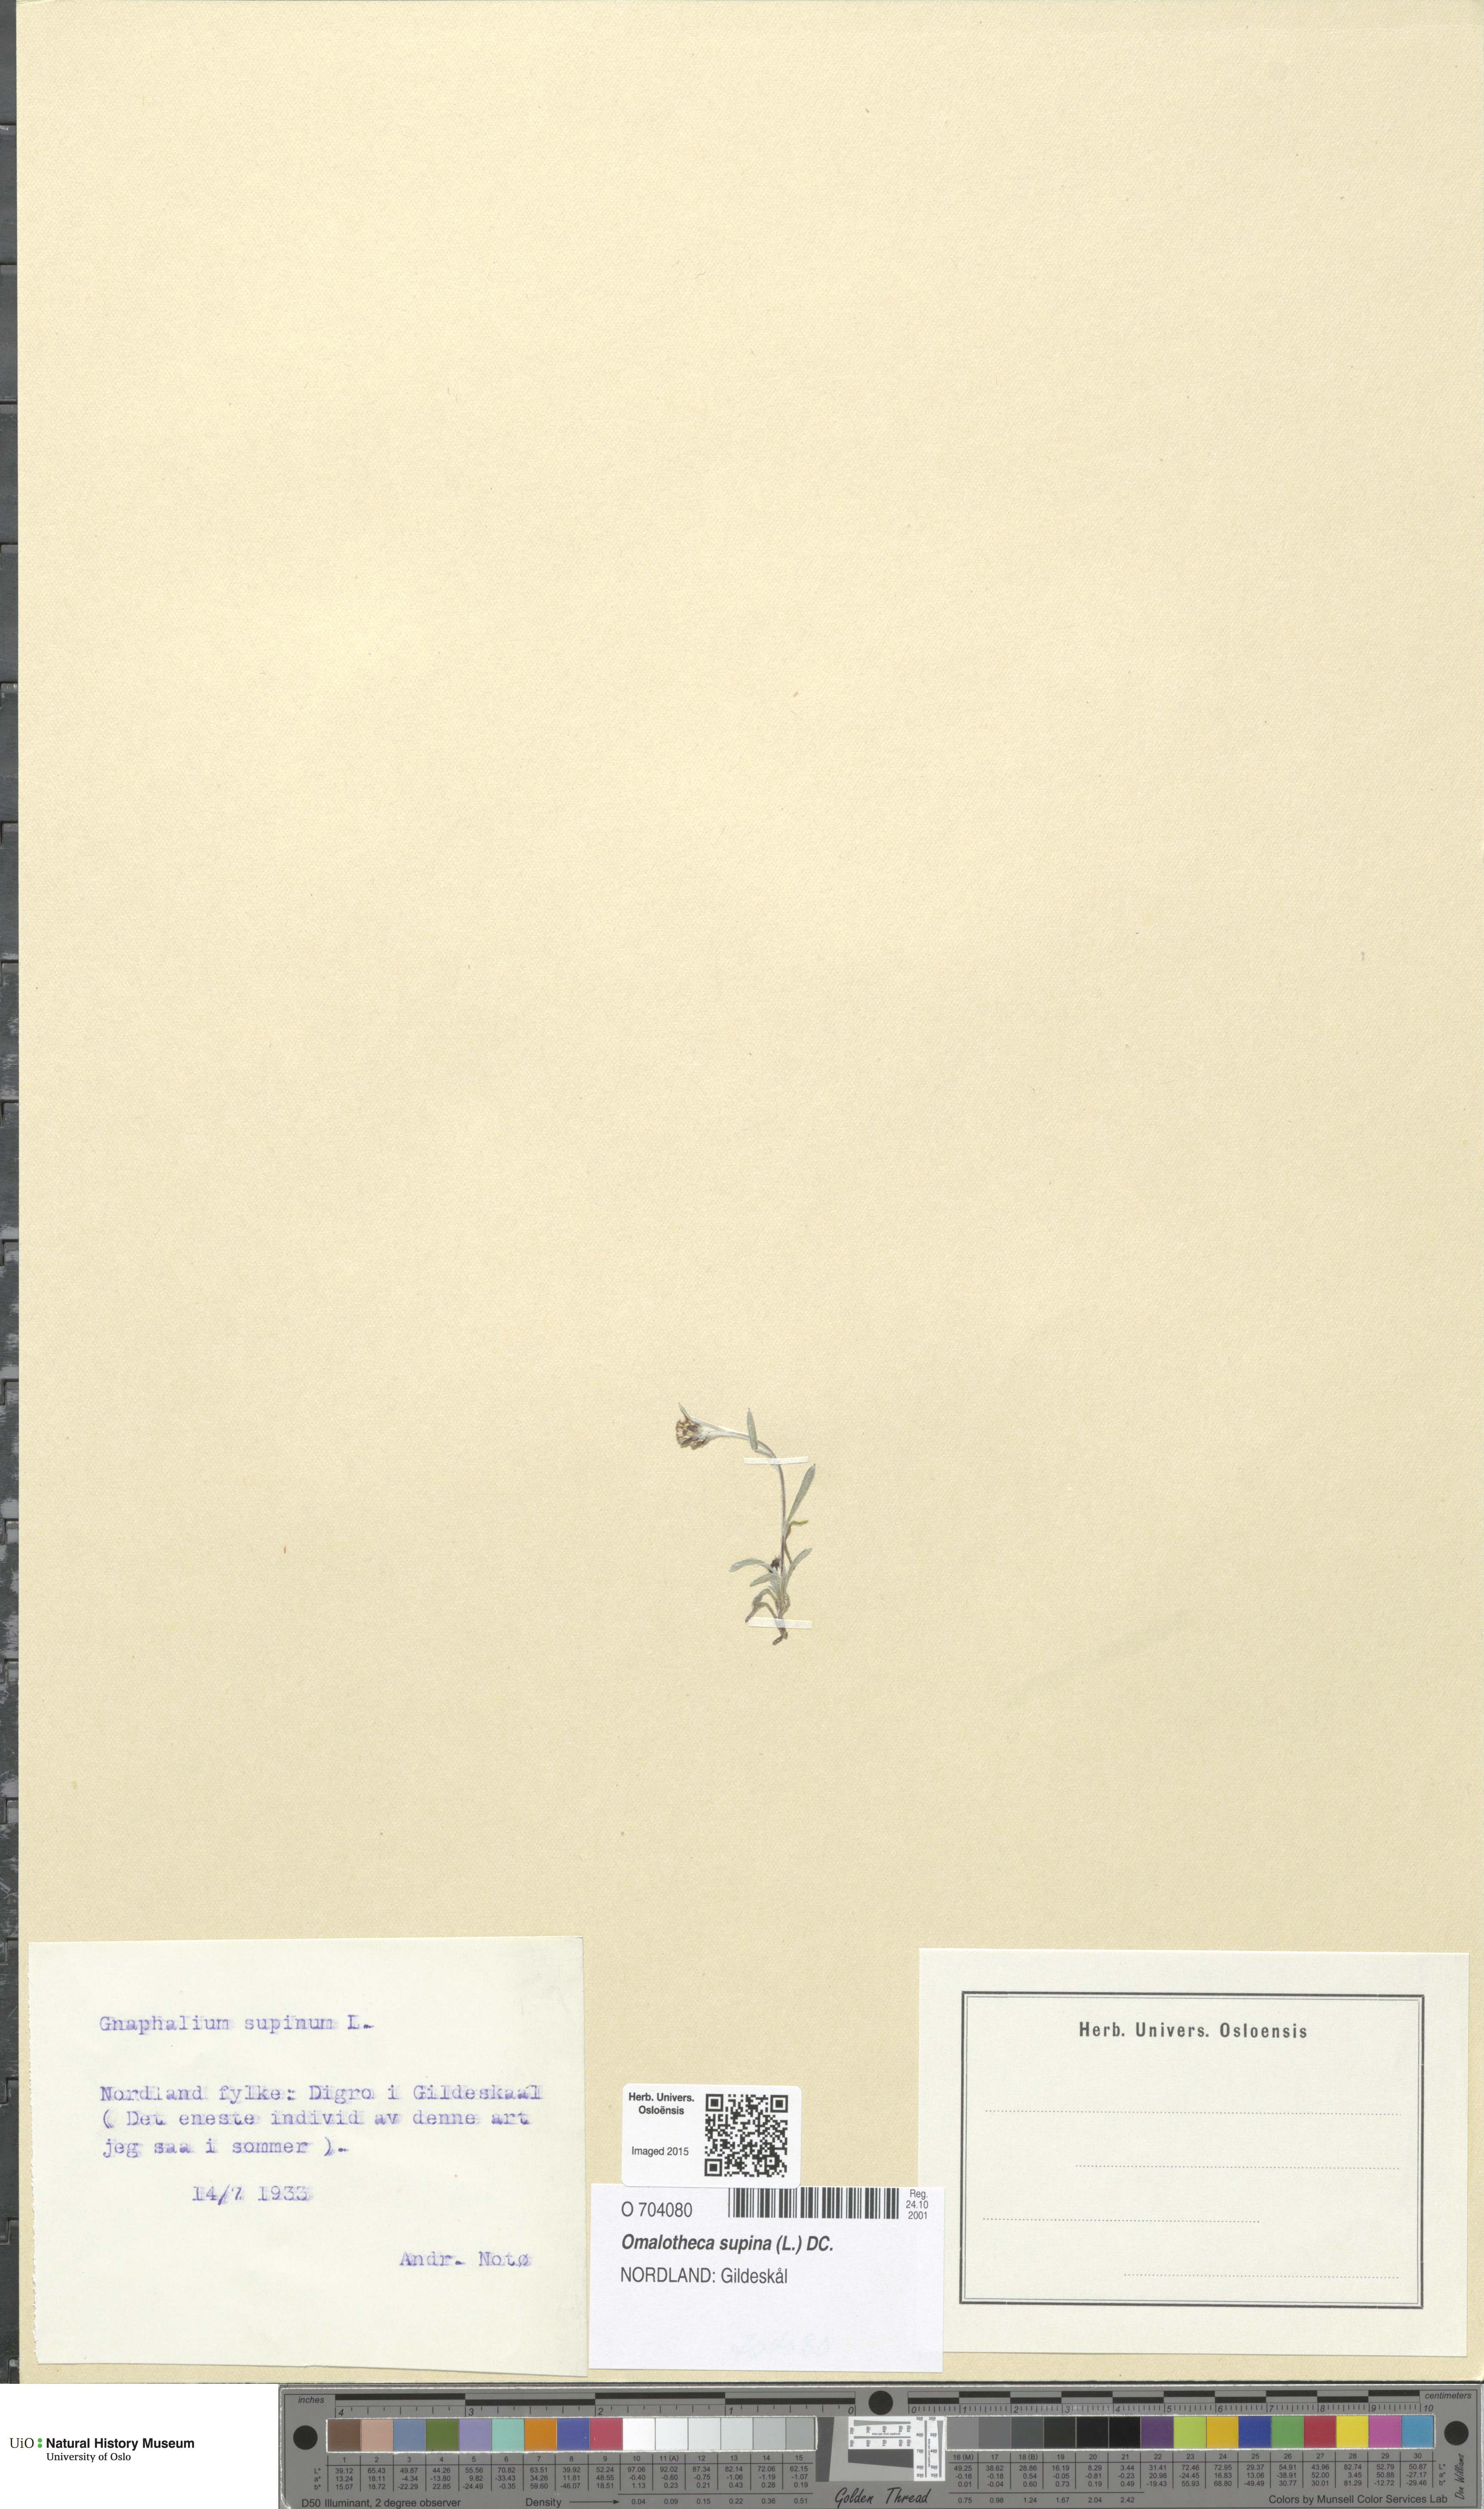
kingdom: Plantae
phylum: Tracheophyta
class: Magnoliopsida
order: Asterales
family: Asteraceae
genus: Omalotheca
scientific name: Omalotheca supina
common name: Alpine arctic-cudweed
